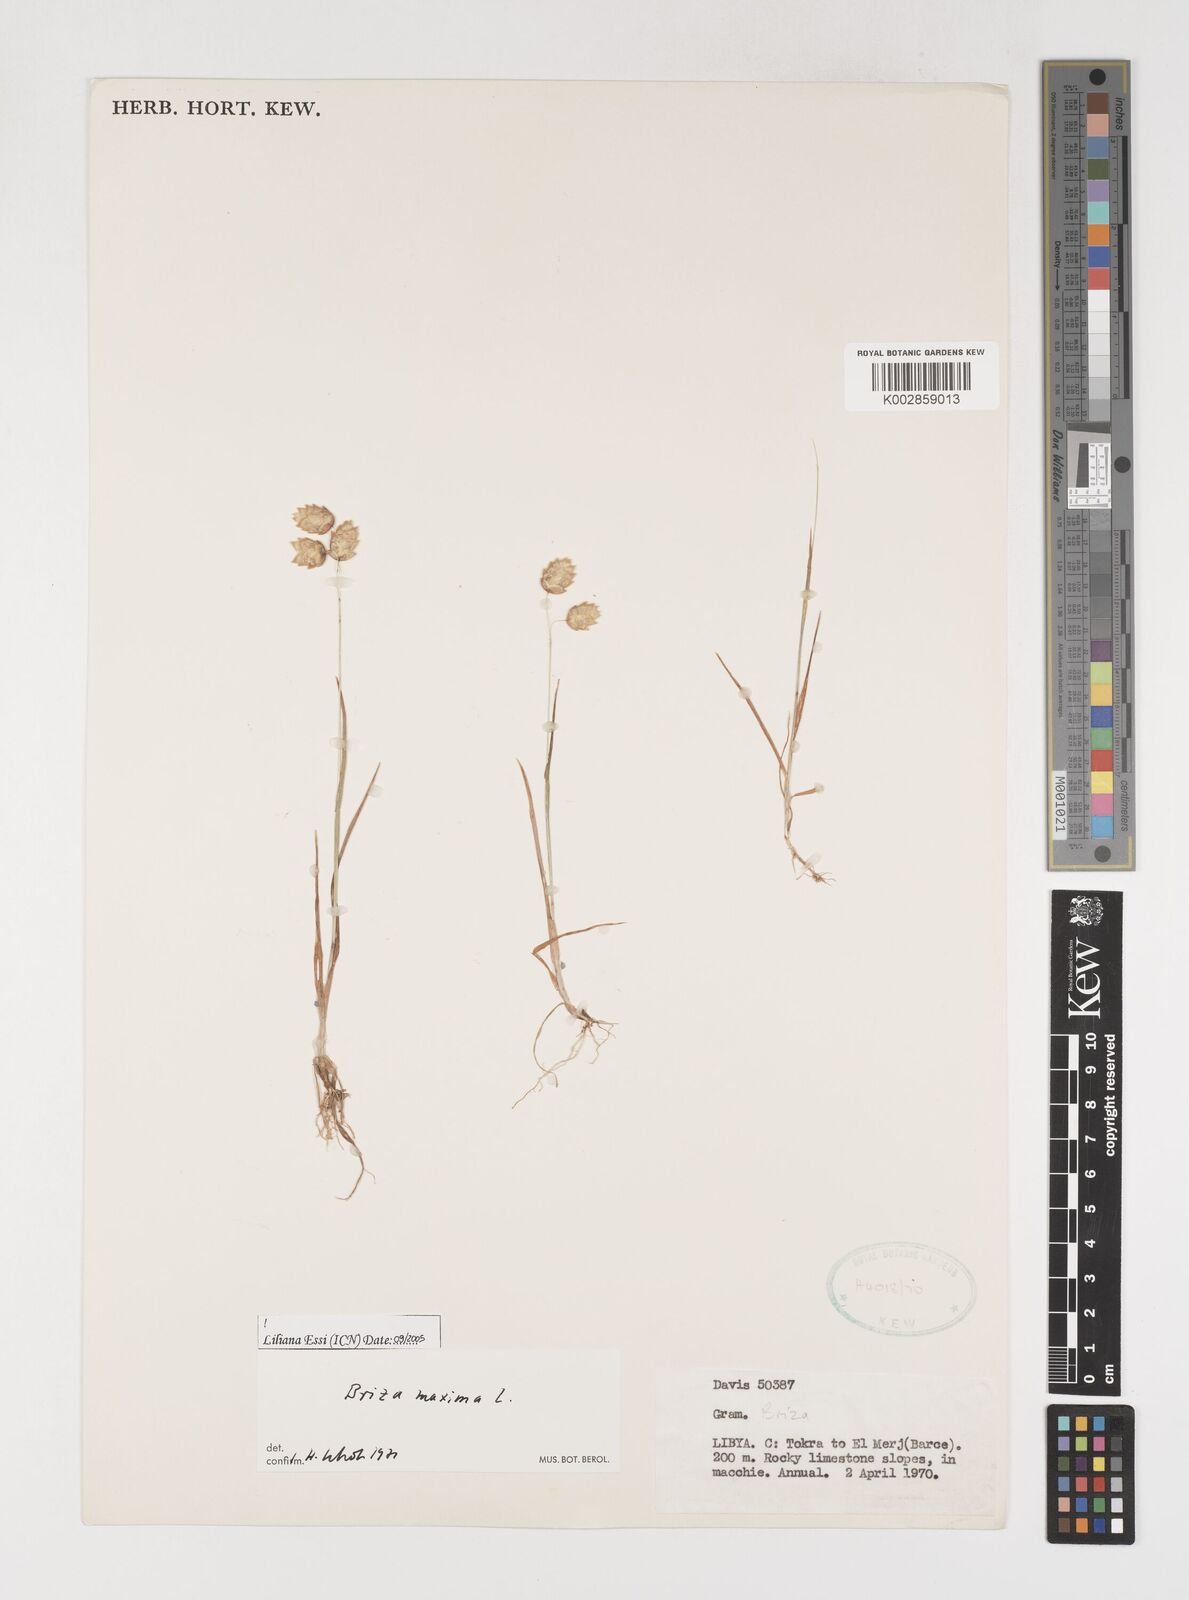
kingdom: Plantae
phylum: Tracheophyta
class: Liliopsida
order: Poales
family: Poaceae
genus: Briza
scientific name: Briza maxima
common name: Big quakinggrass
